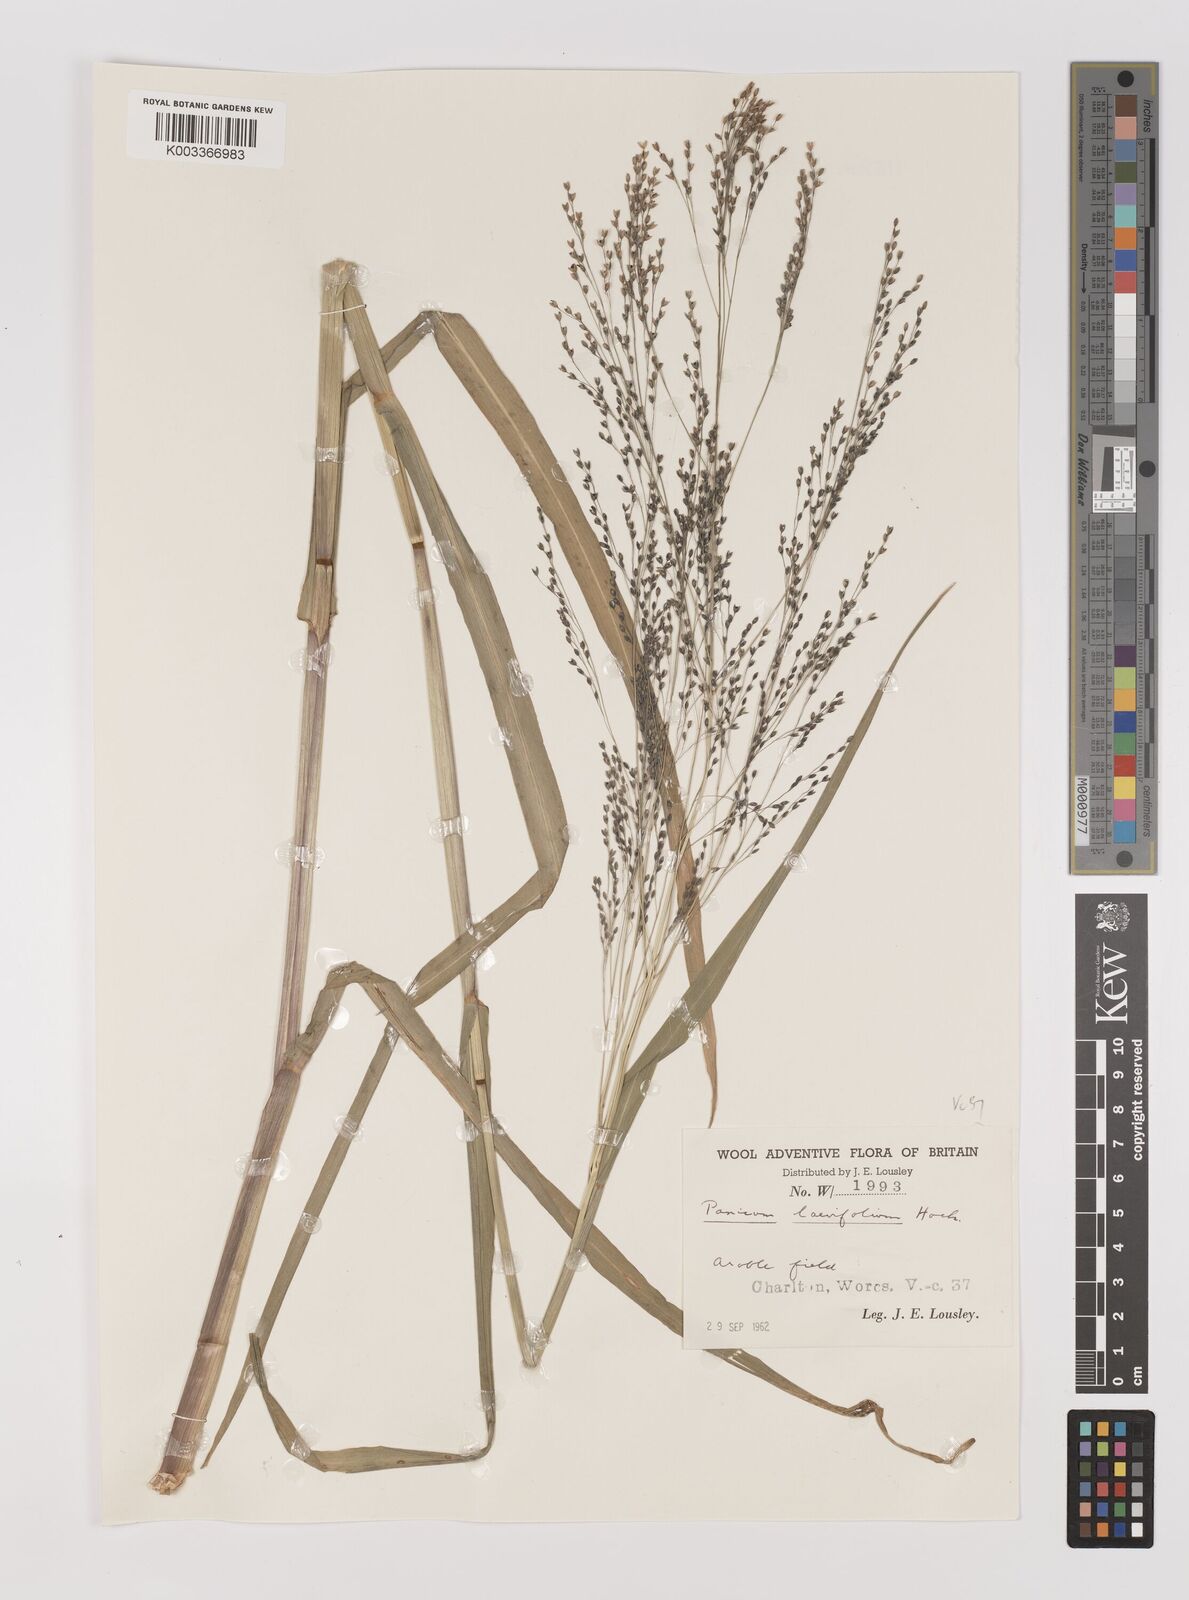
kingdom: Plantae
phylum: Tracheophyta
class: Liliopsida
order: Poales
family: Poaceae
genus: Panicum
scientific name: Panicum schinzii
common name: Sweet grass
